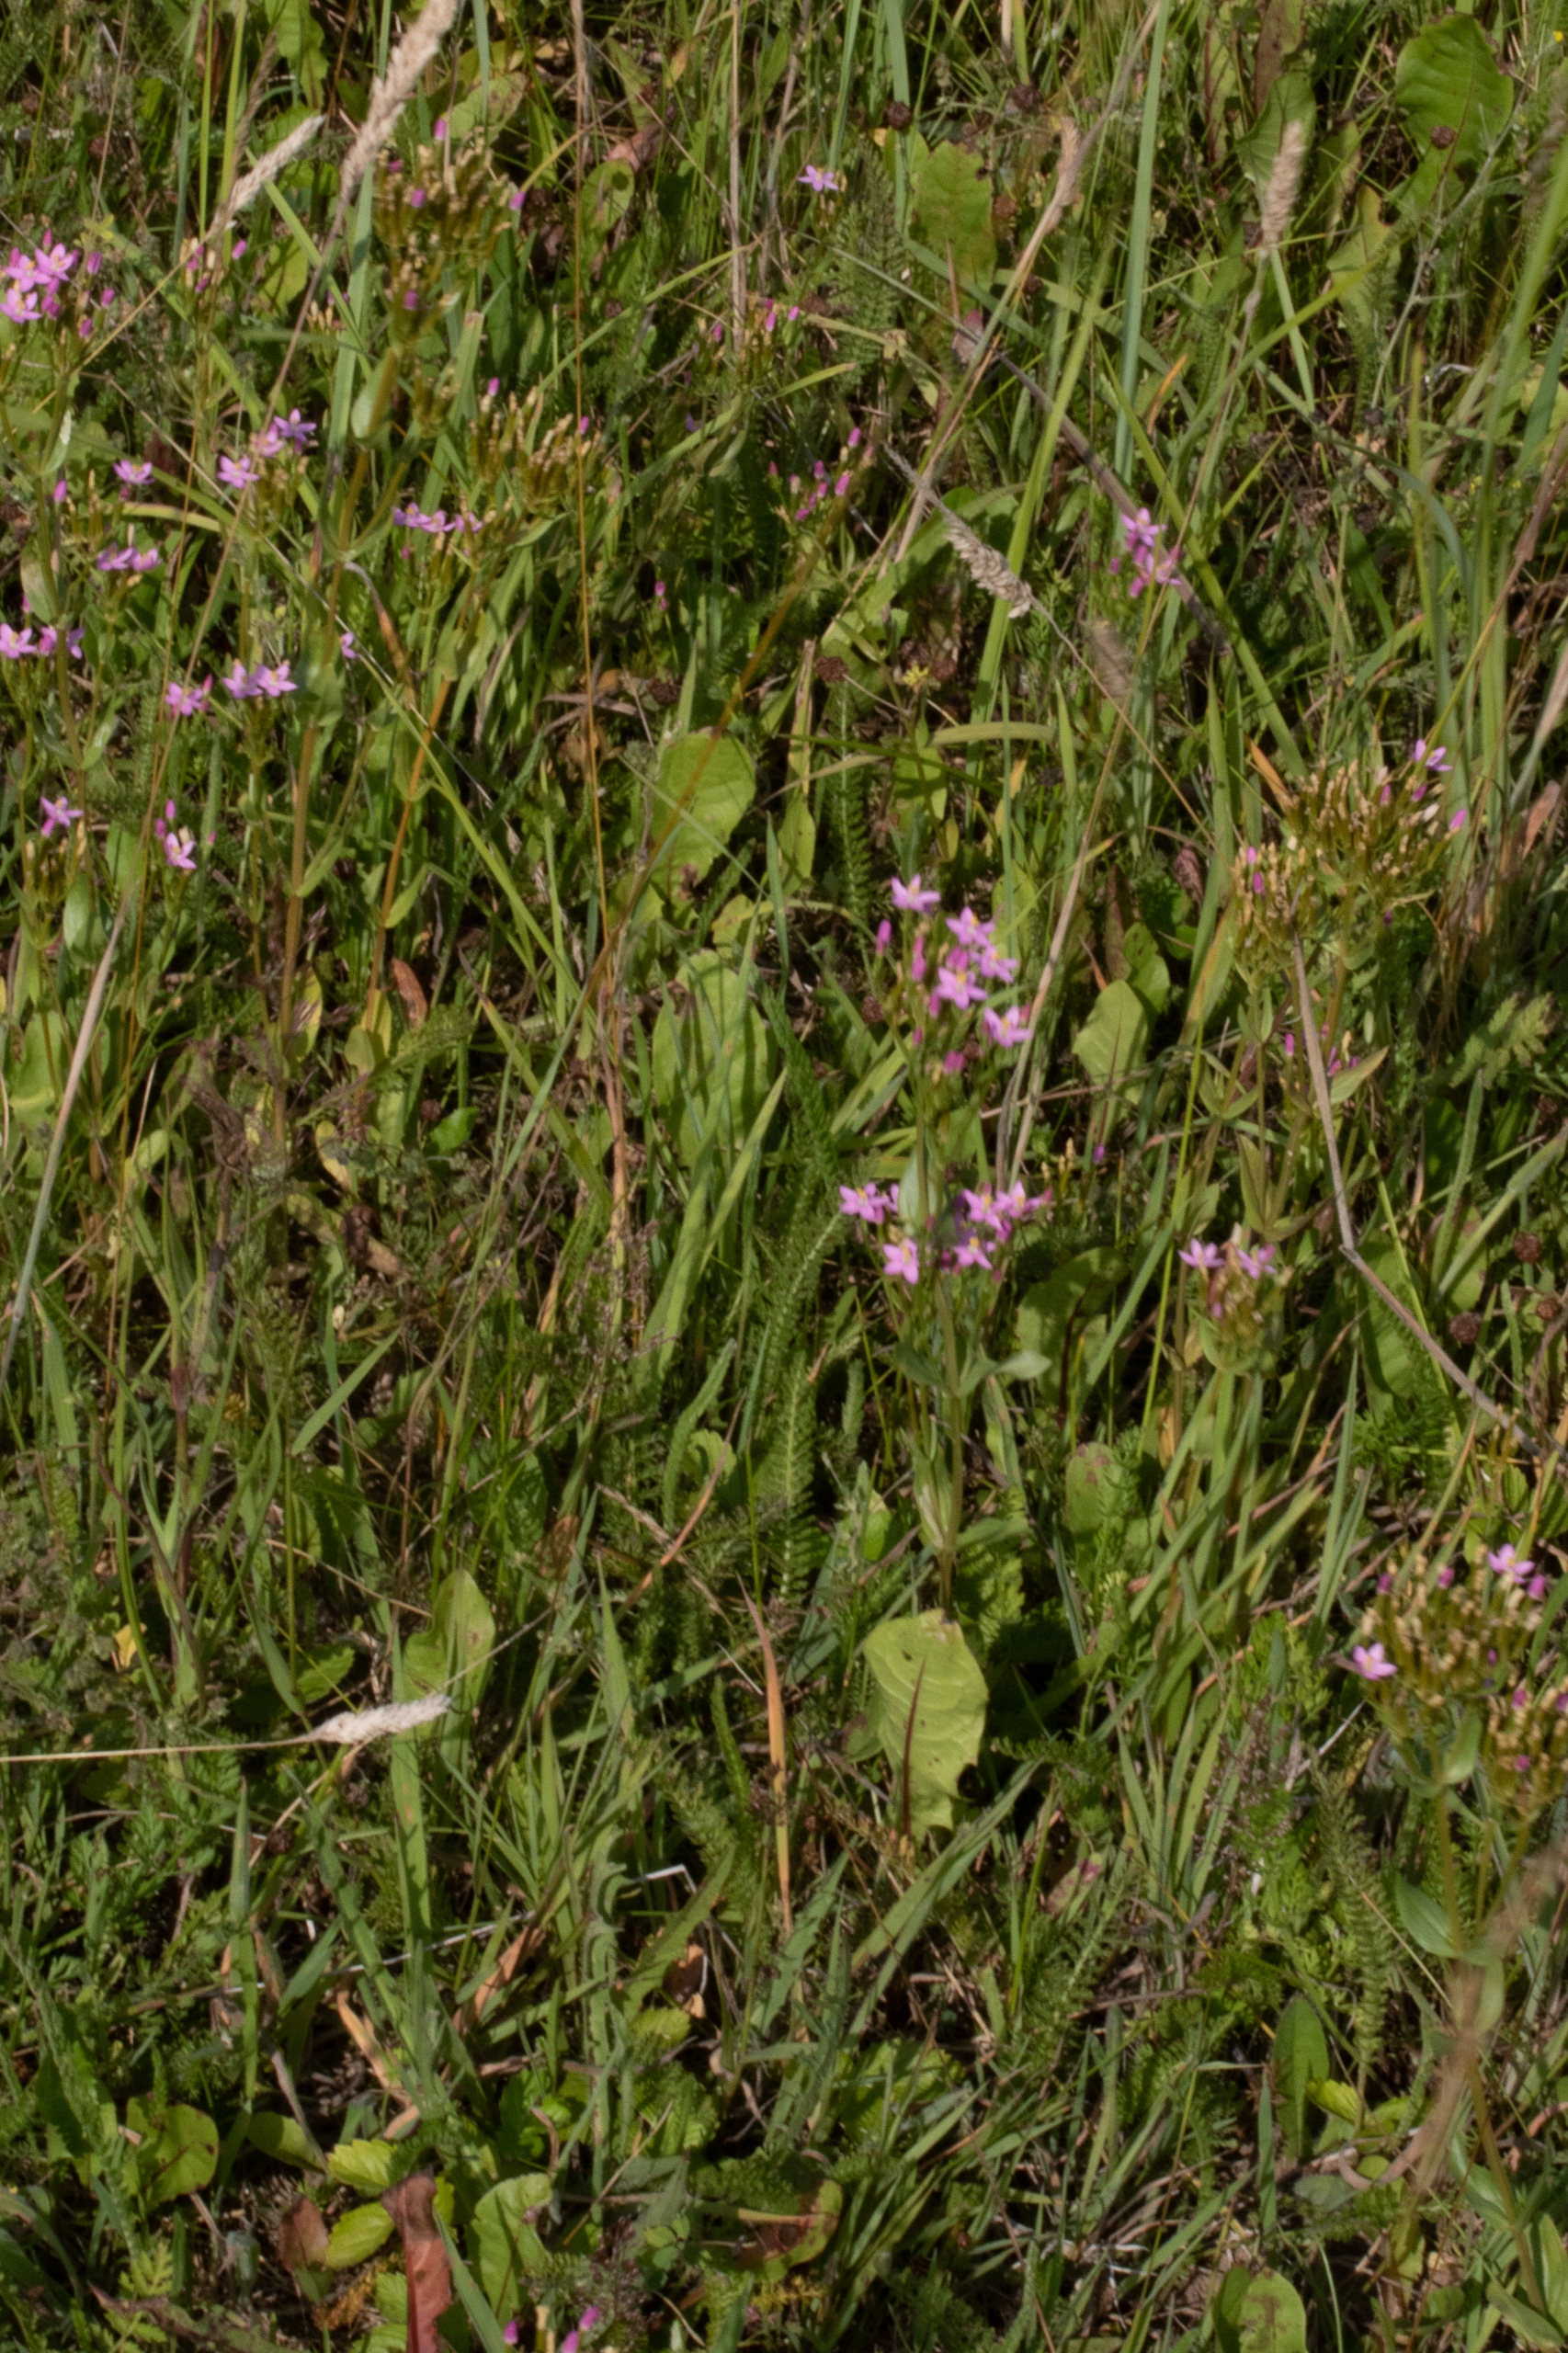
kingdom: Plantae
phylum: Tracheophyta
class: Magnoliopsida
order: Gentianales
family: Gentianaceae
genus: Centaurium
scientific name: Centaurium erythraea
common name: Mark-tusindgylden
